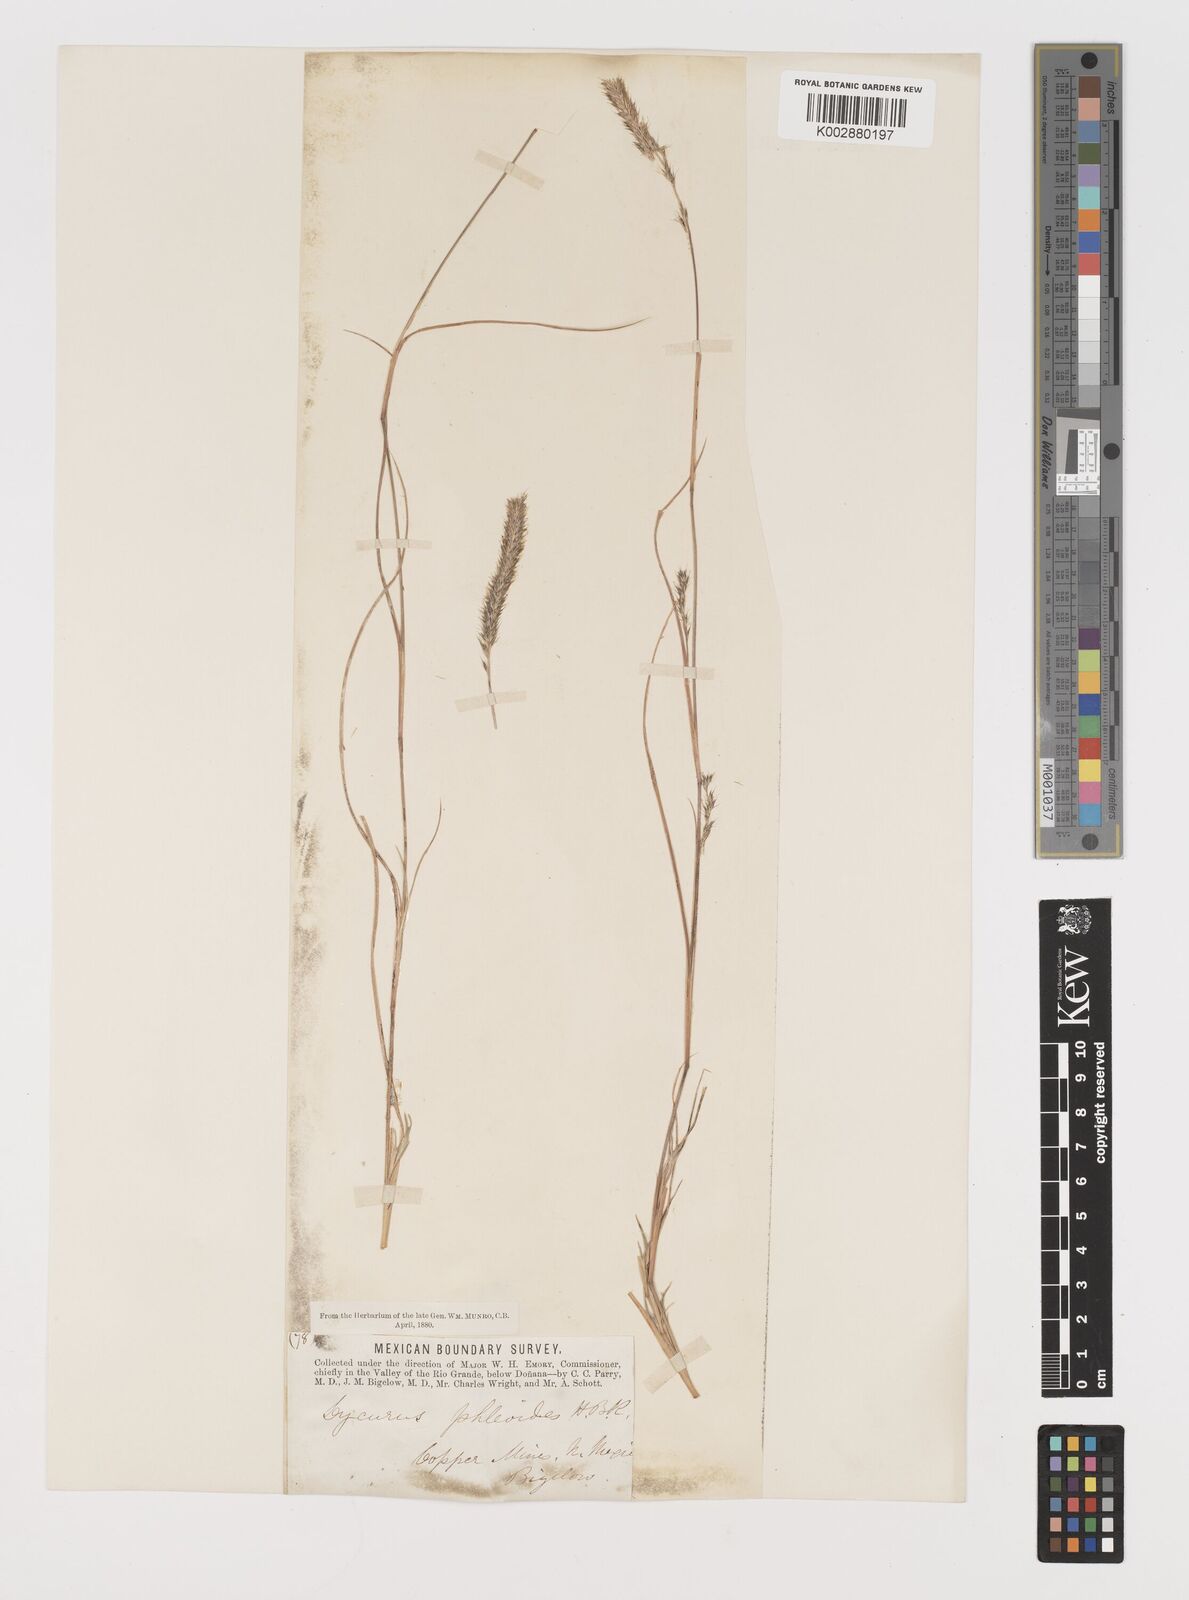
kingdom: Plantae
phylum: Tracheophyta
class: Liliopsida
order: Poales
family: Poaceae
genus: Muhlenbergia
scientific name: Muhlenbergia alopecuroides
